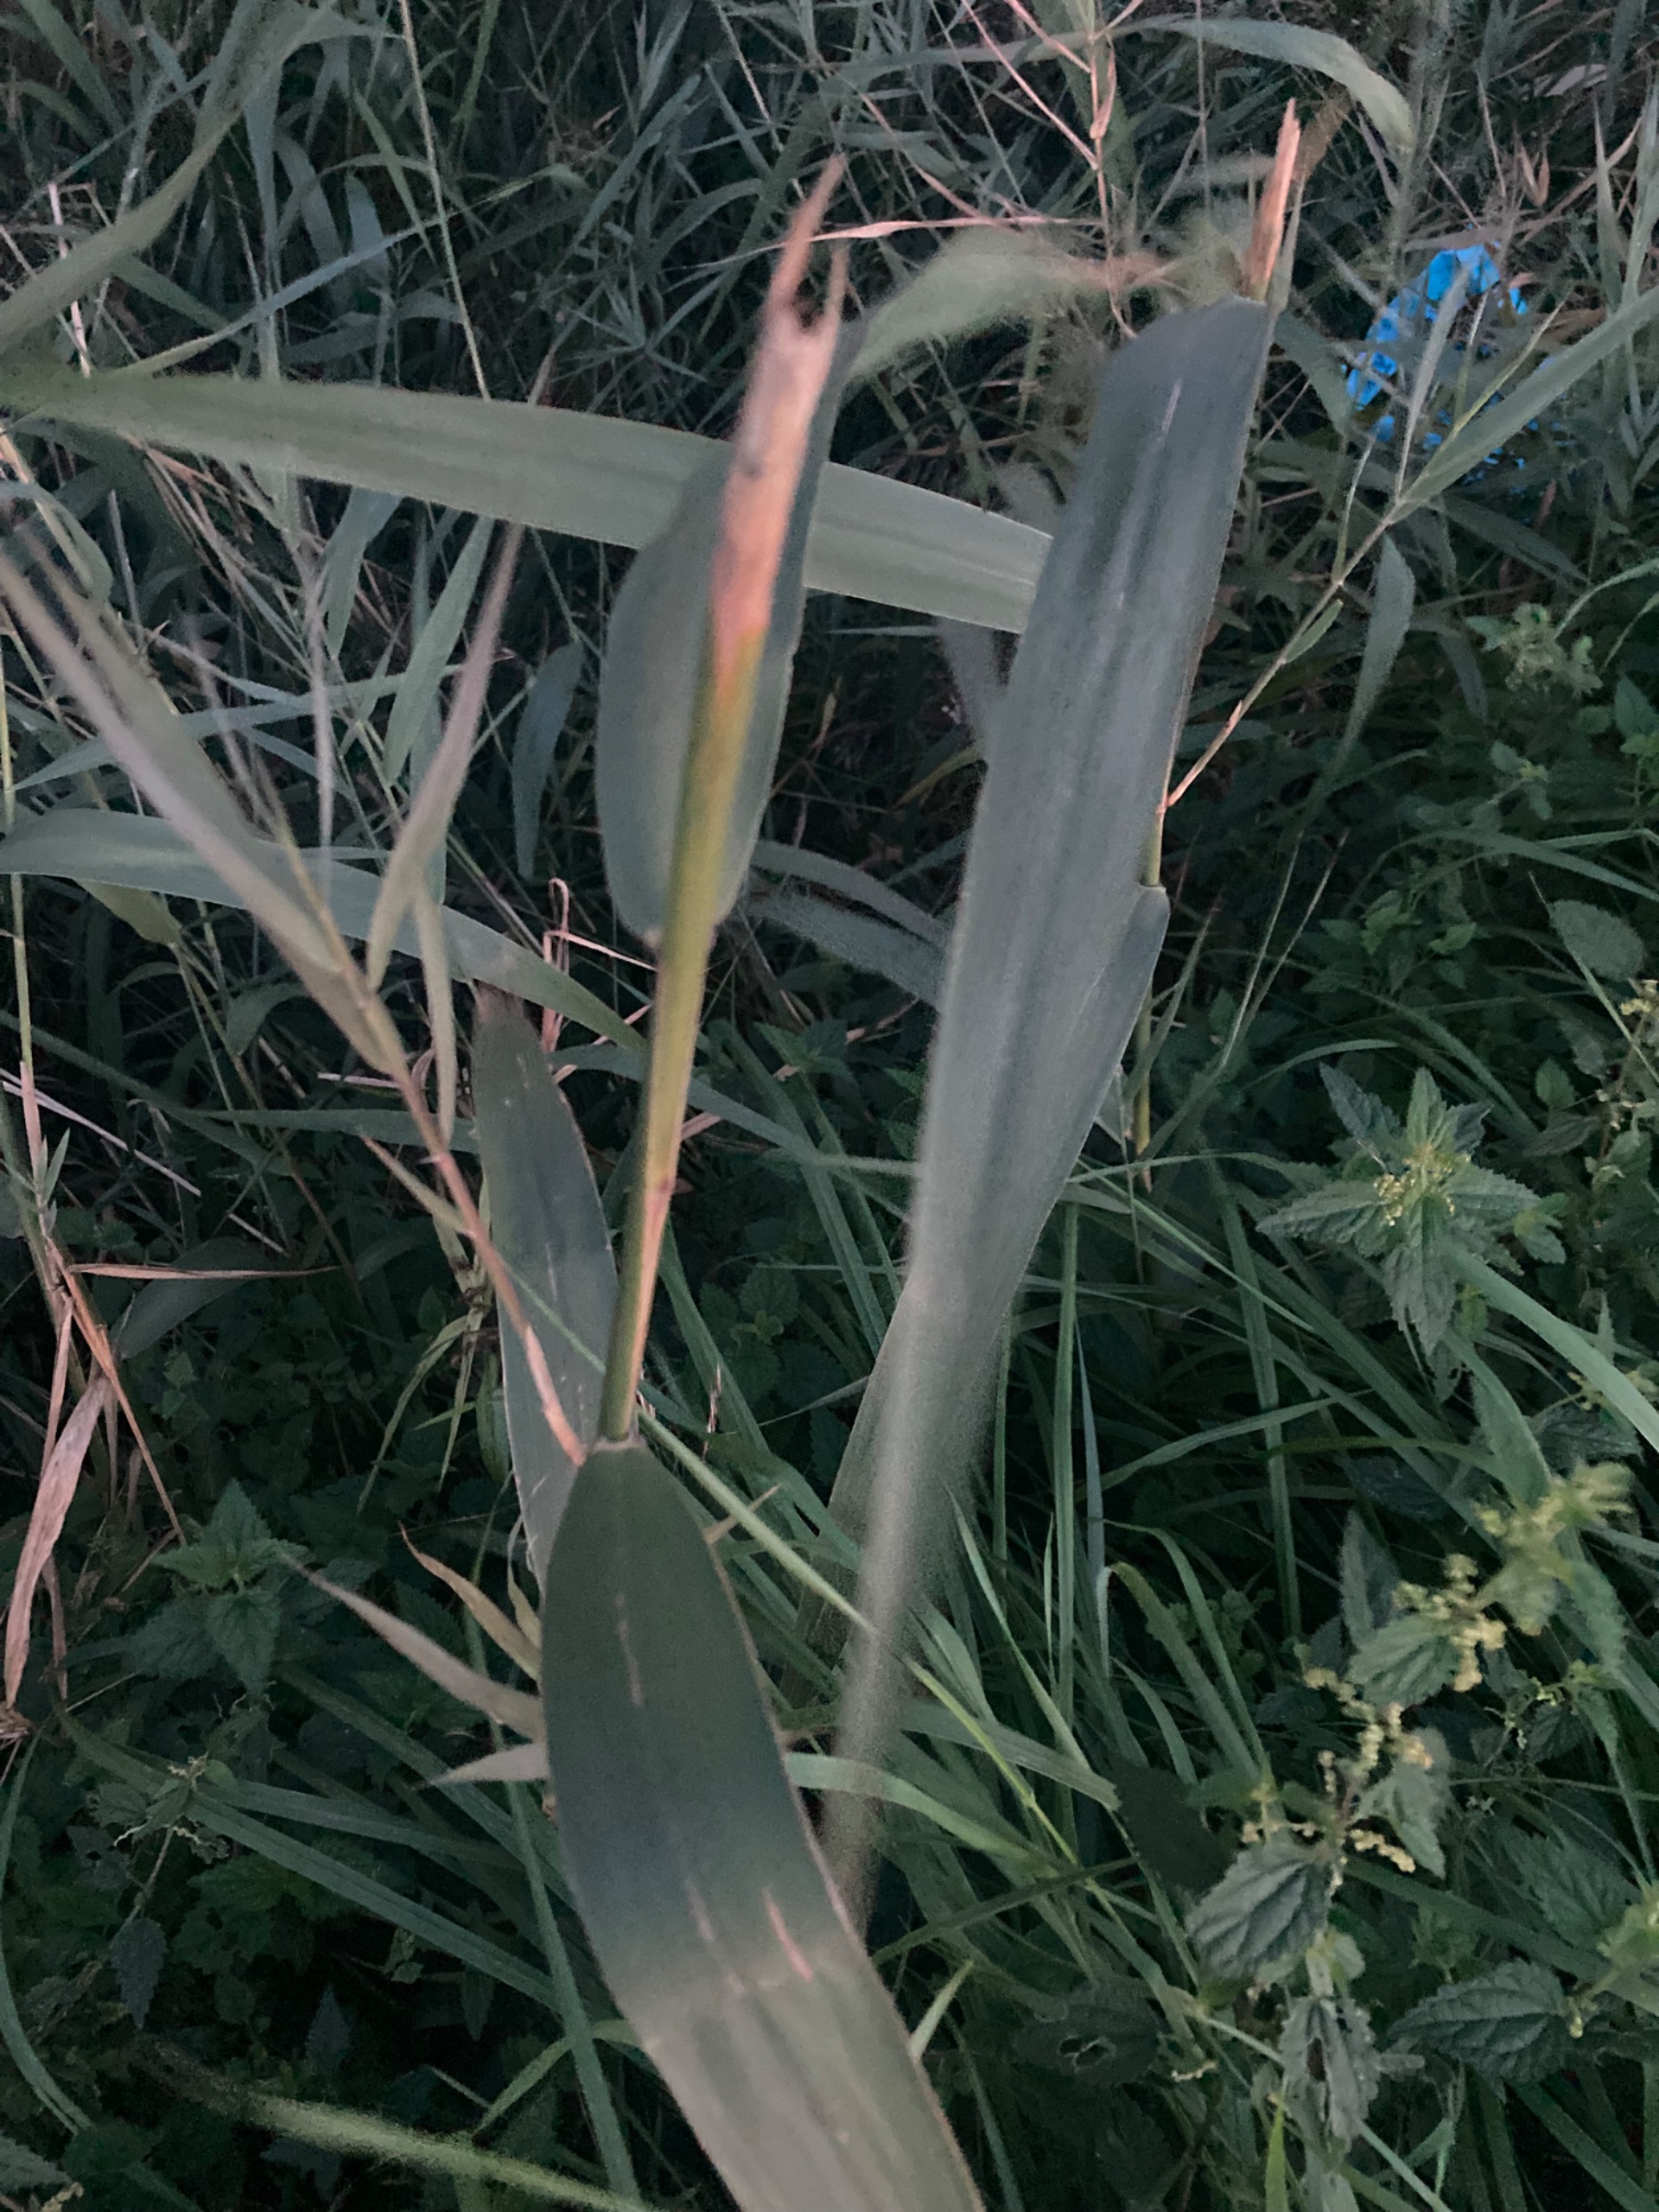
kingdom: Plantae
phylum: Tracheophyta
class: Liliopsida
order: Poales
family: Poaceae
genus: Phragmites
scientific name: Phragmites australis
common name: Tagrør
